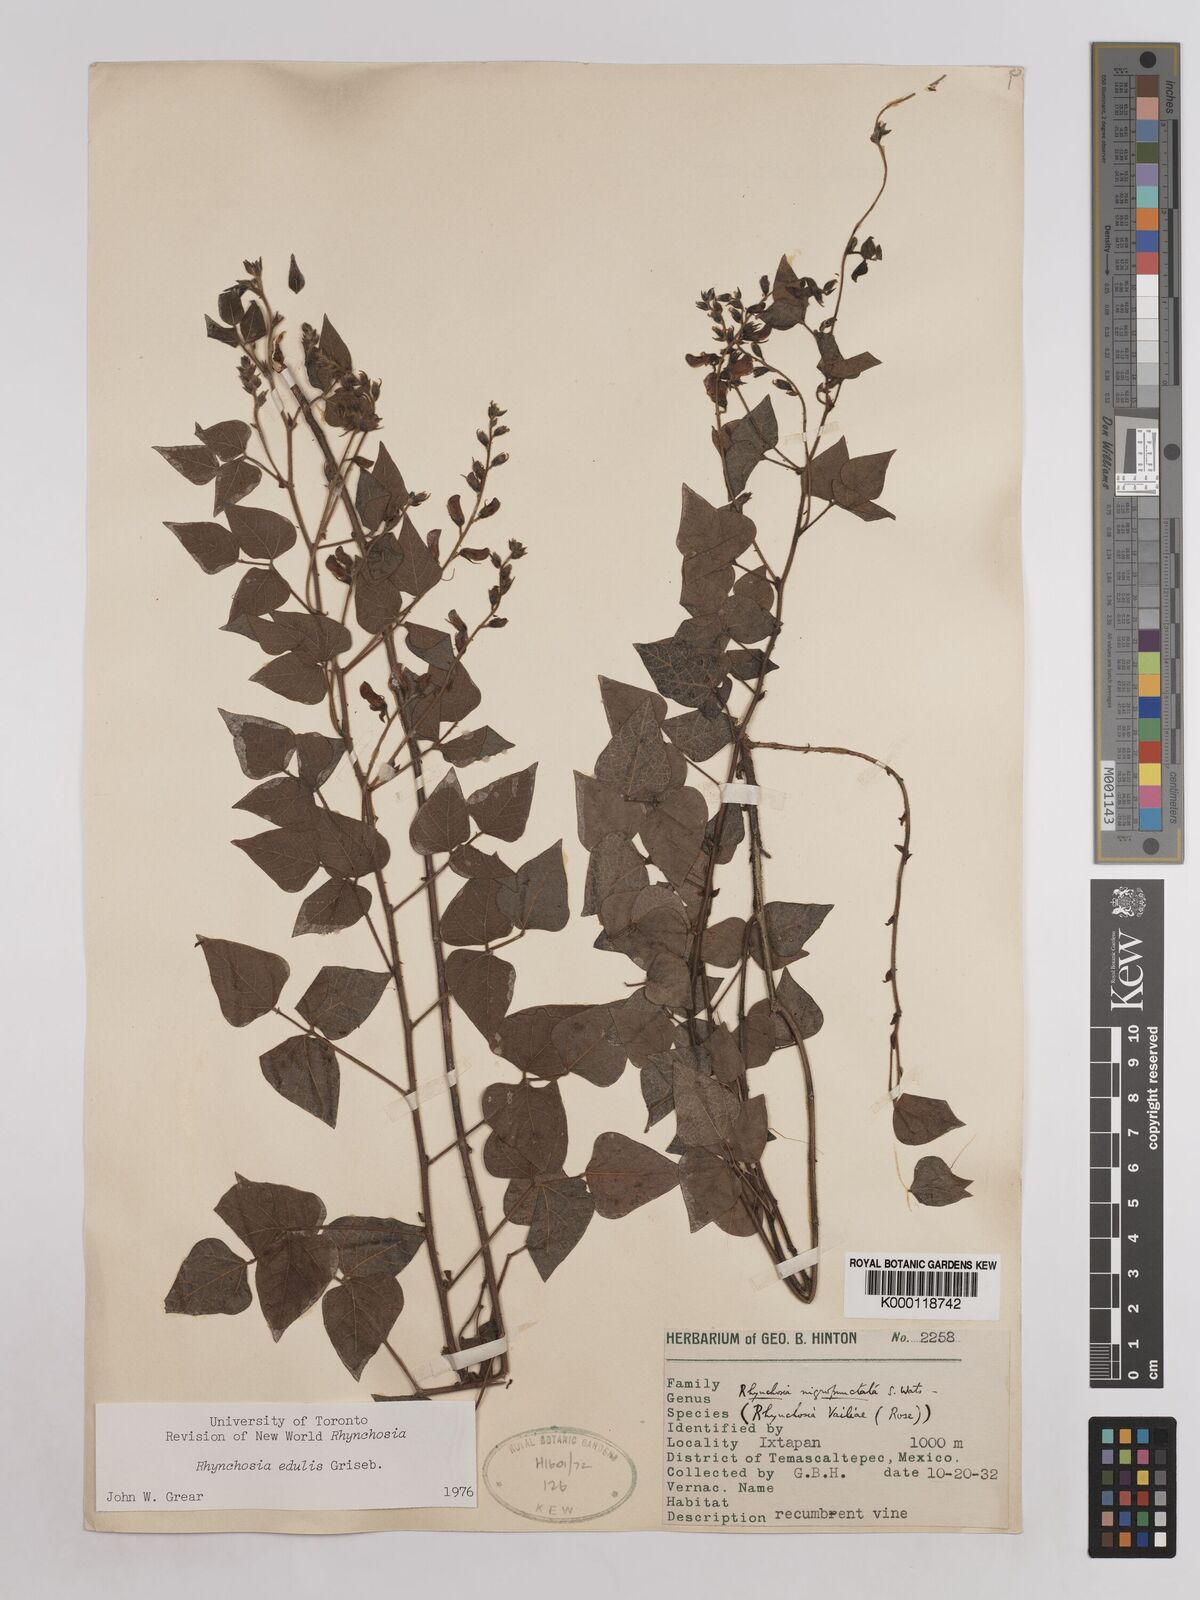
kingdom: Plantae
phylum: Tracheophyta
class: Magnoliopsida
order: Fabales
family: Fabaceae
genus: Rhynchosia
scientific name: Rhynchosia edulis
